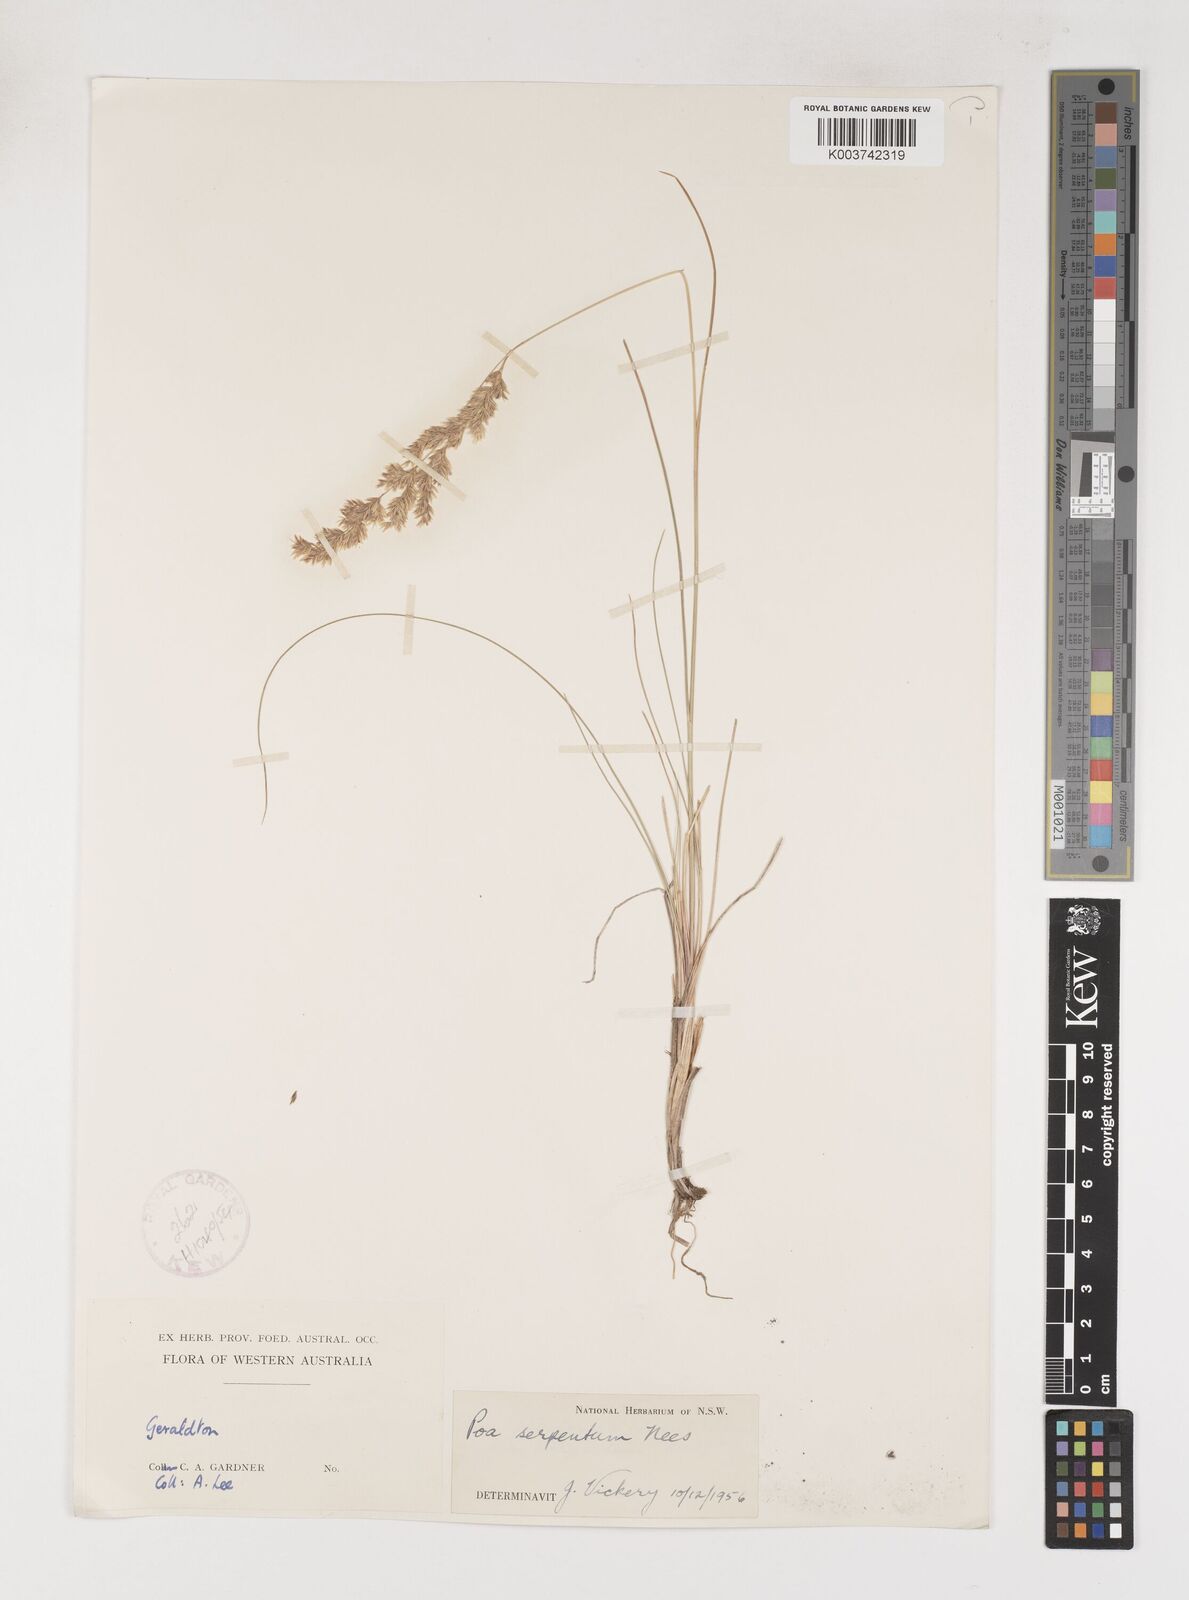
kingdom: Plantae
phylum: Tracheophyta
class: Liliopsida
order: Poales
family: Poaceae
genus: Poa
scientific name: Poa porphyroclados
